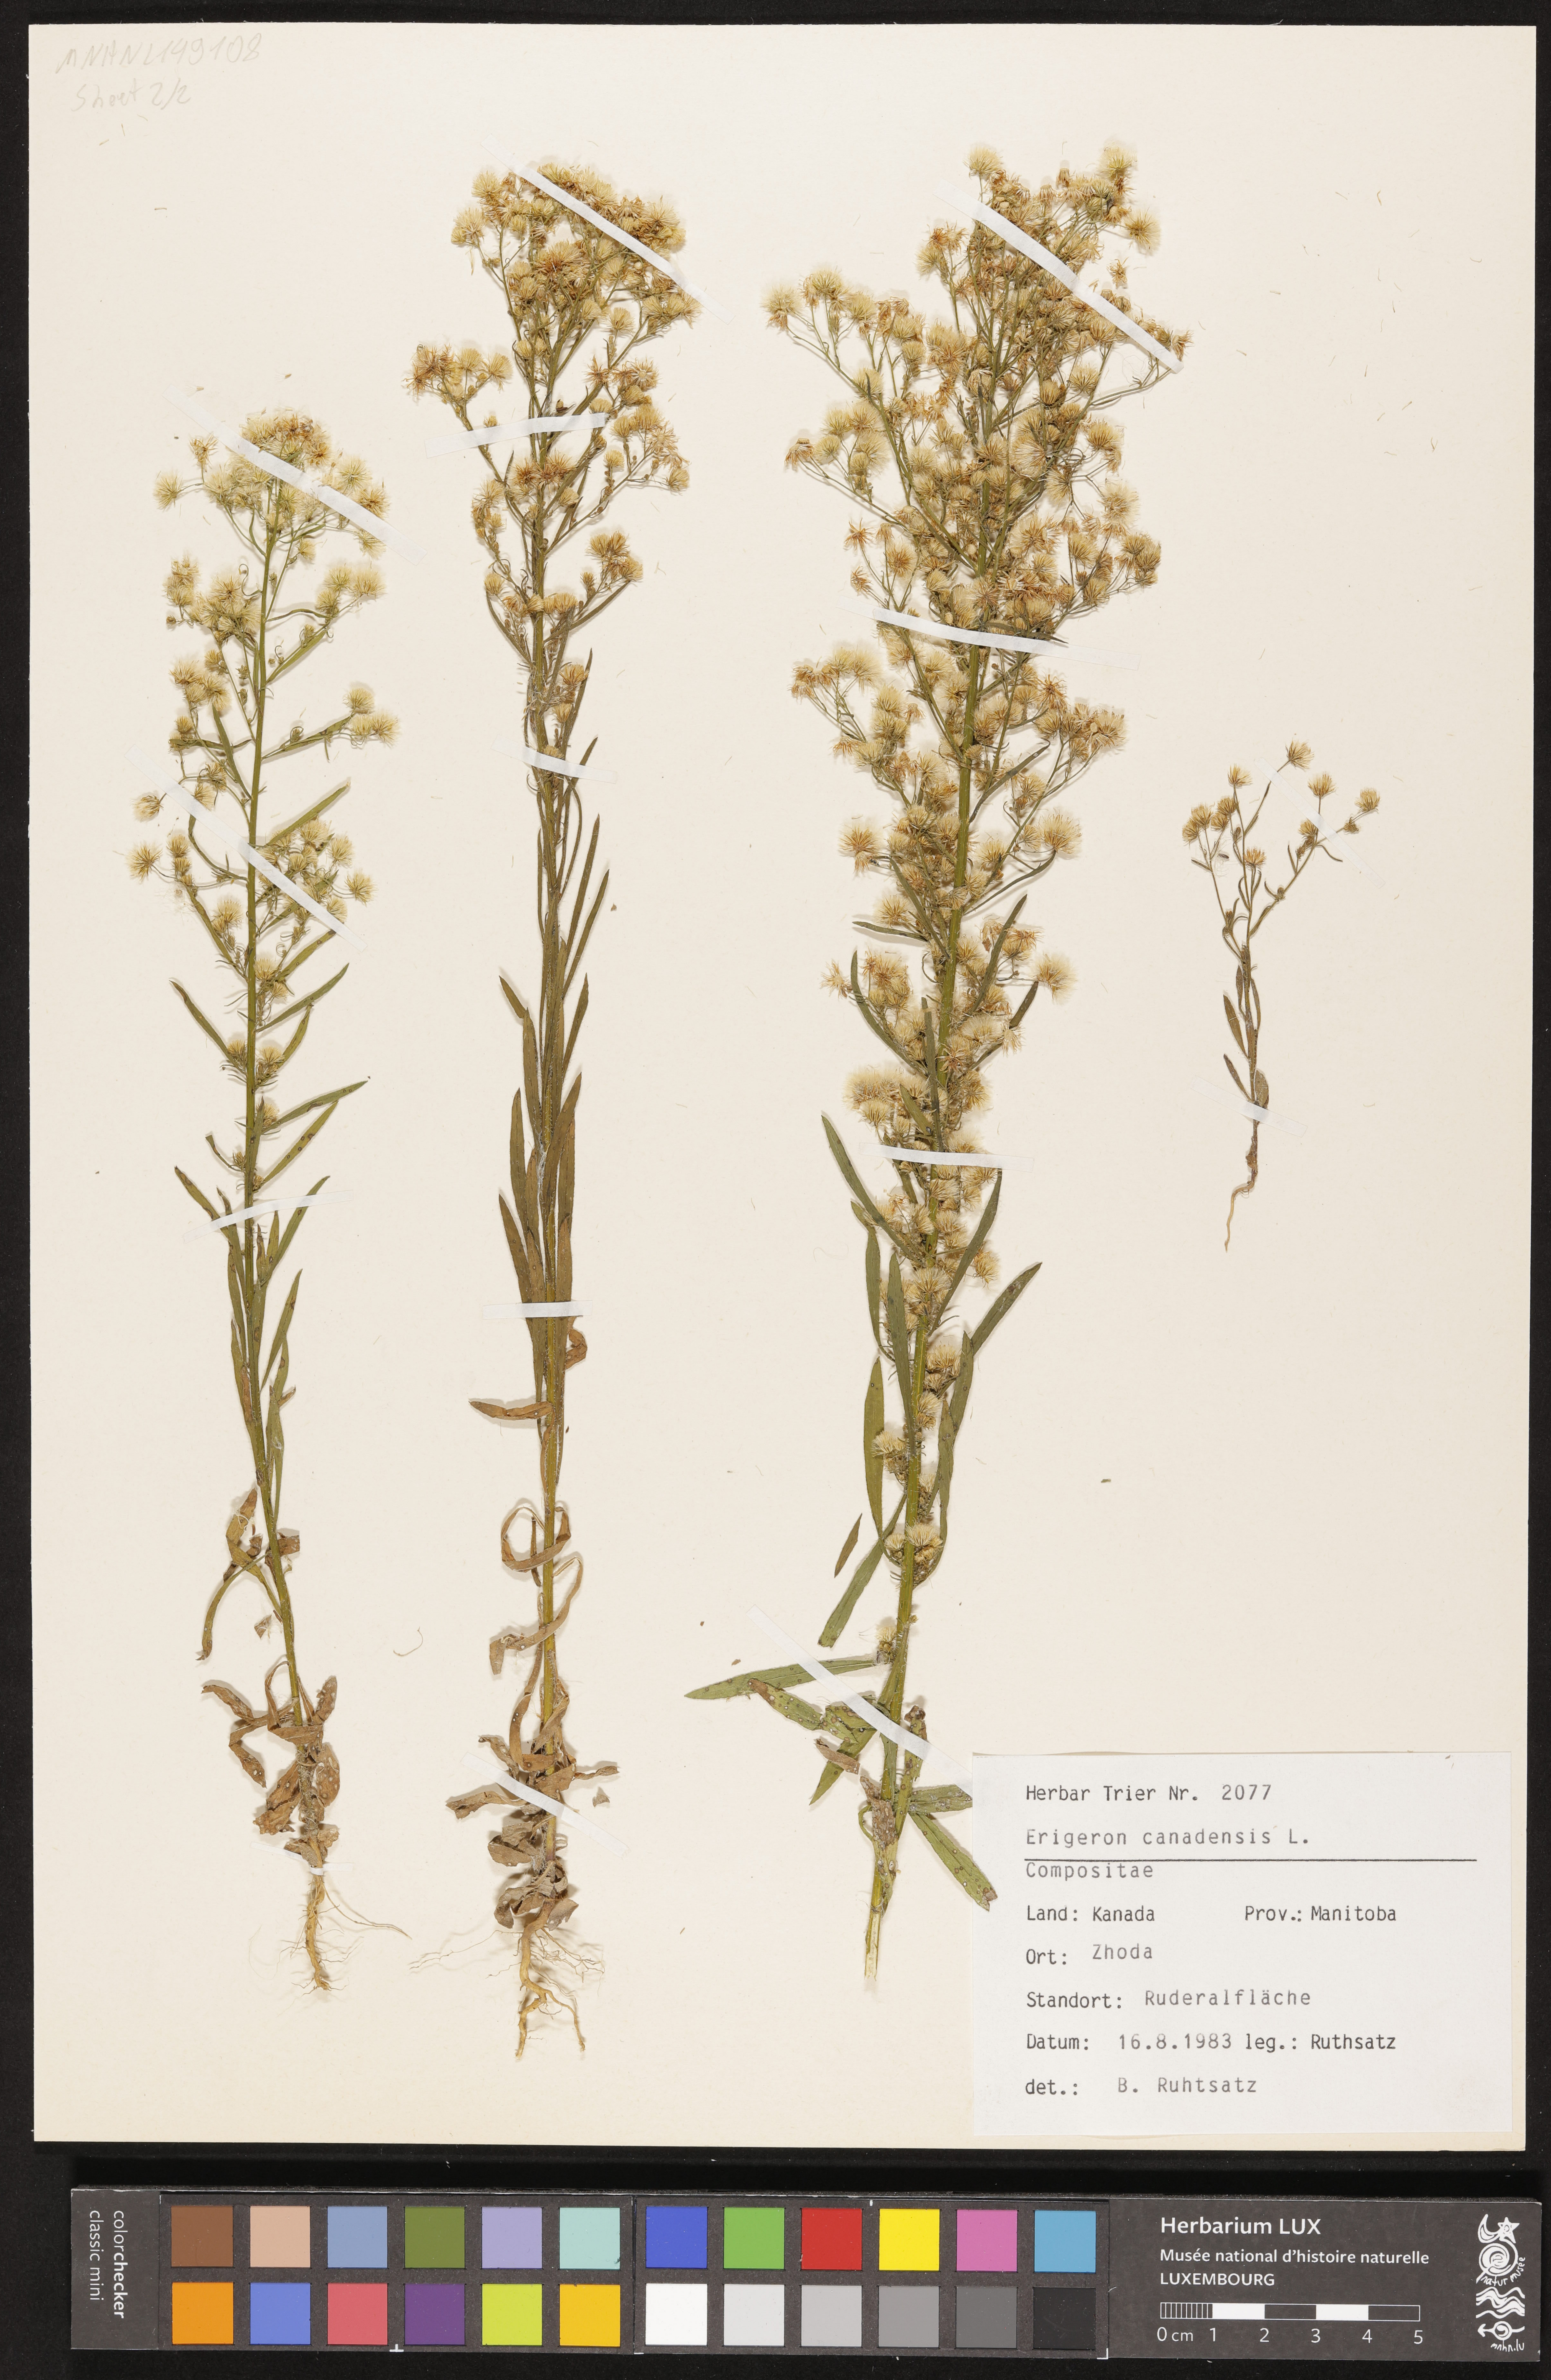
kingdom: Plantae
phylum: Tracheophyta
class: Magnoliopsida
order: Asterales
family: Asteraceae
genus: Erigeron
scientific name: Erigeron canadensis
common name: Canadian fleabane
